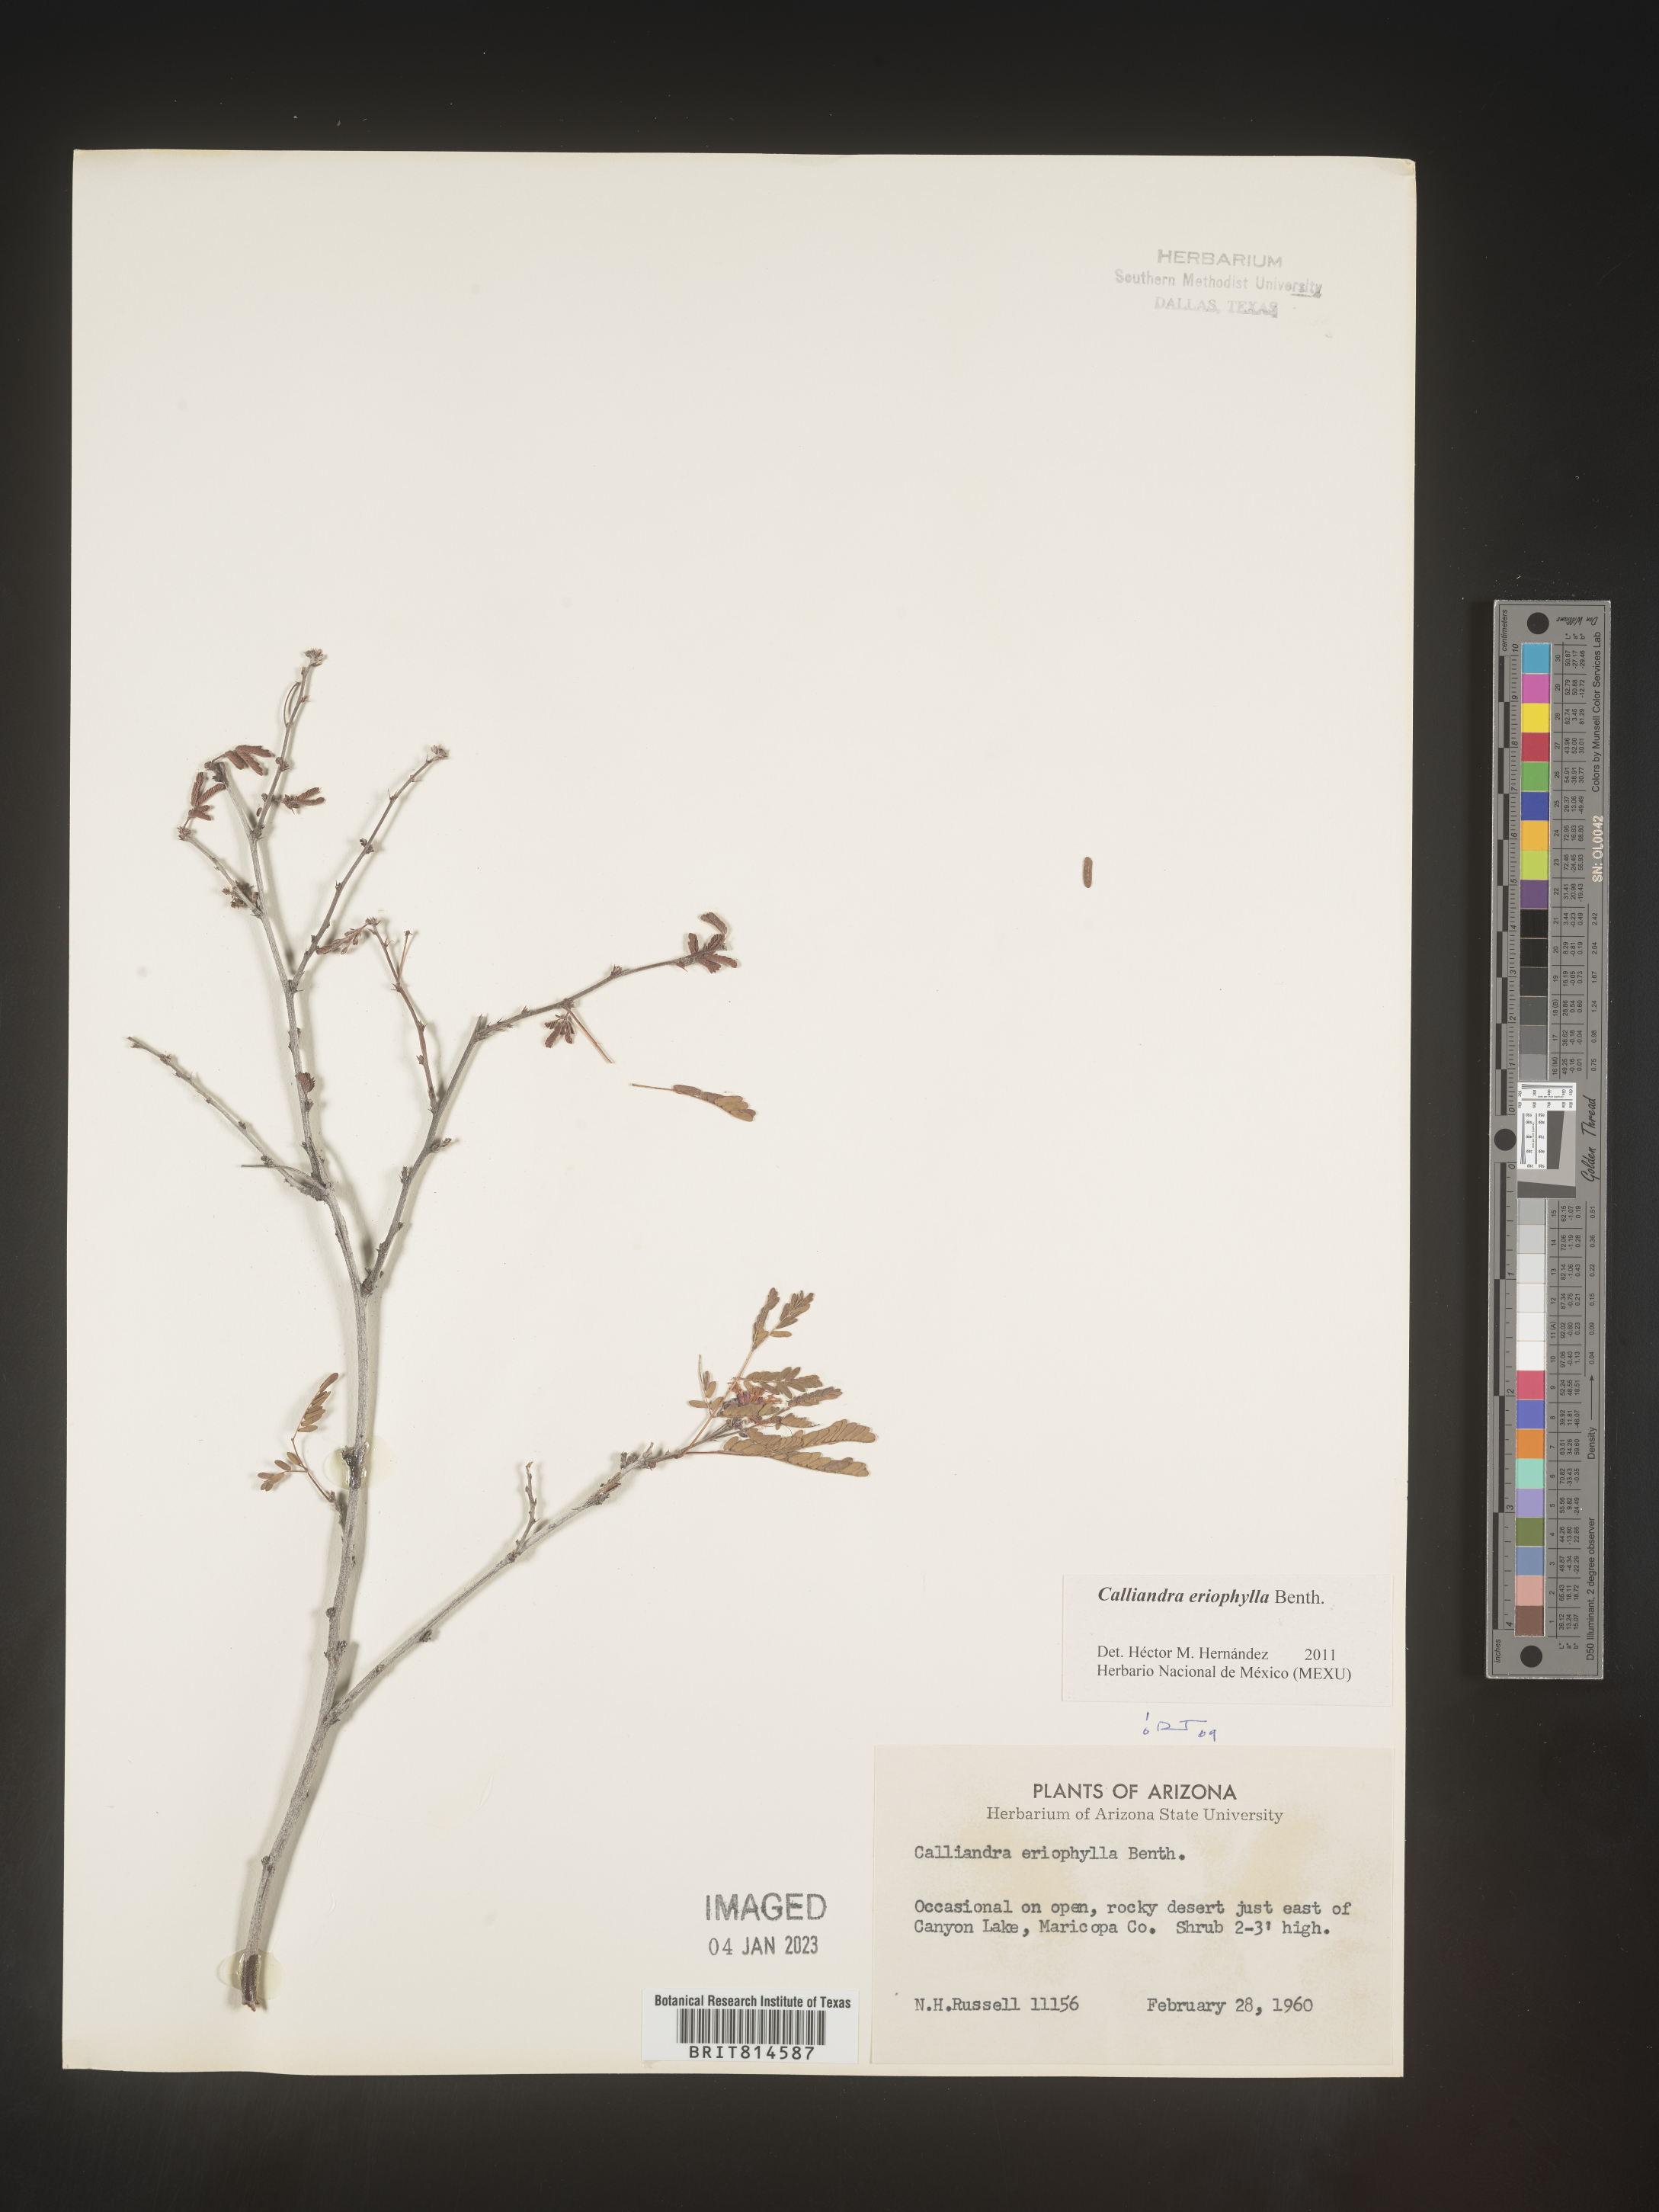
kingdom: Plantae
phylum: Tracheophyta
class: Magnoliopsida
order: Fabales
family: Fabaceae
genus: Calliandra
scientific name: Calliandra
